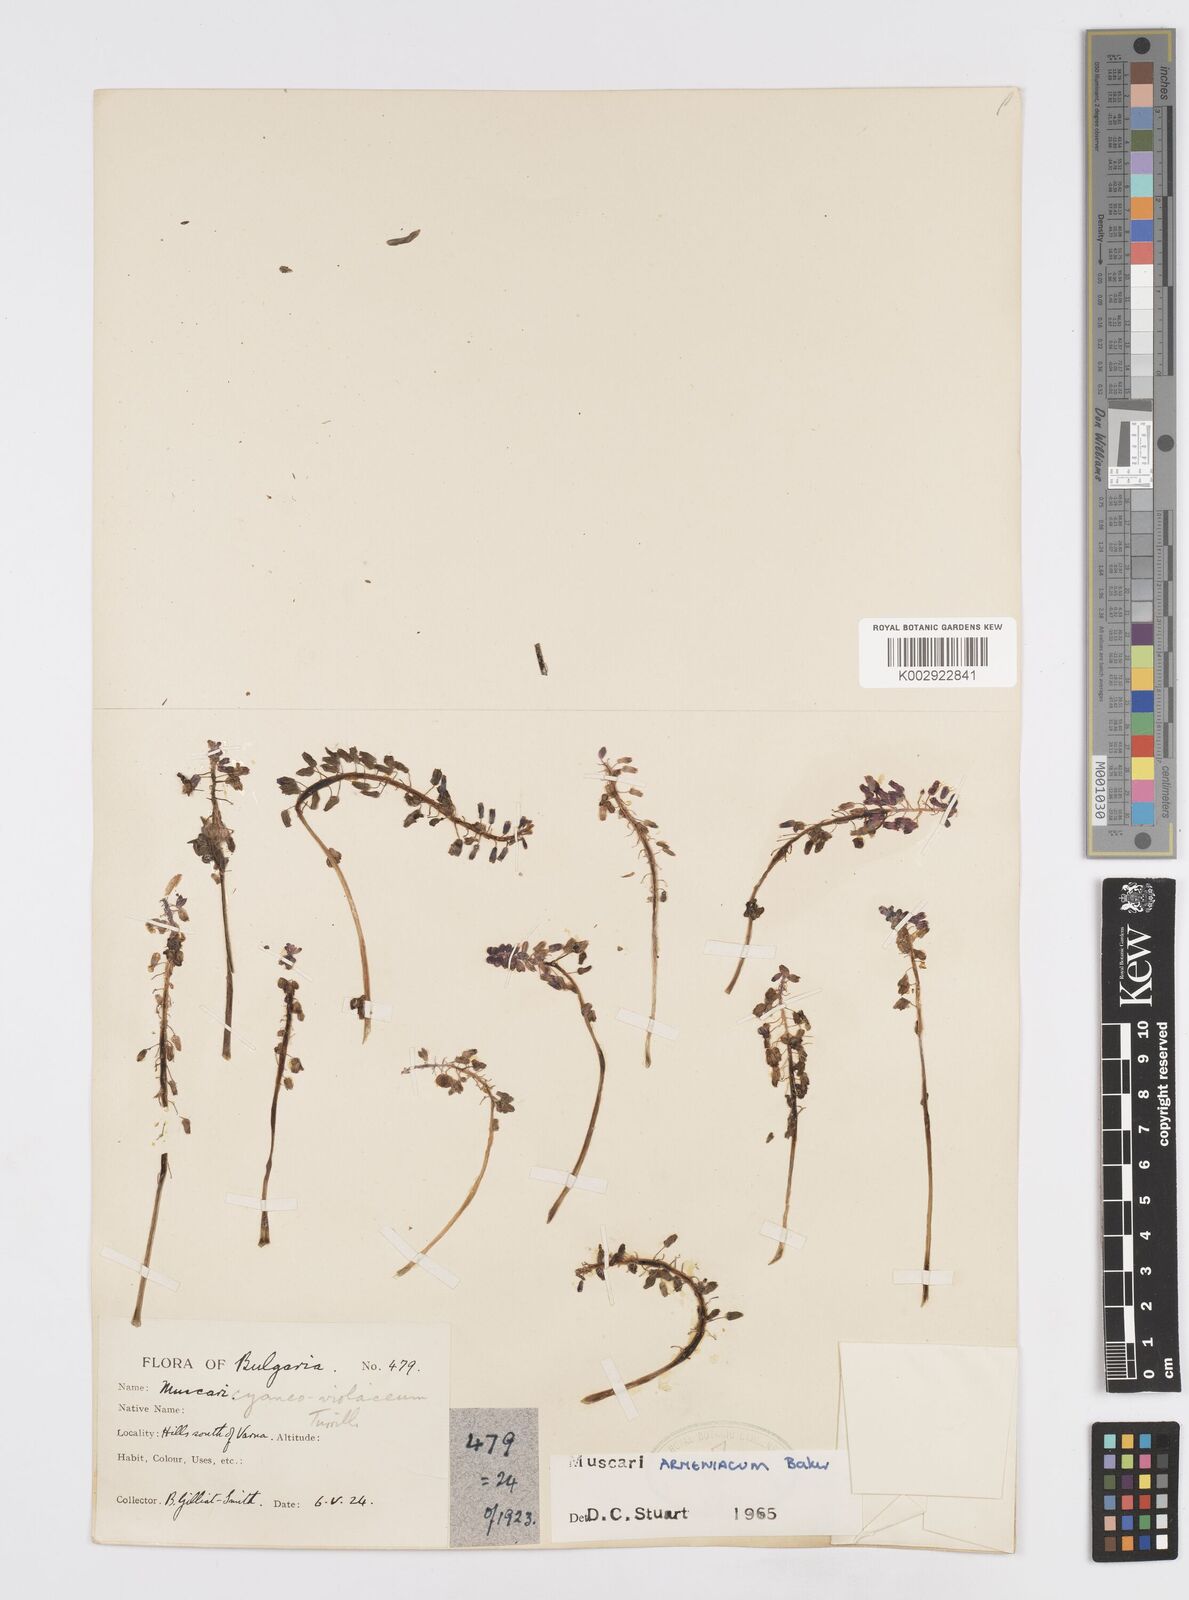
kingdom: Plantae
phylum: Tracheophyta
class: Liliopsida
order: Asparagales
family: Asparagaceae
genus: Muscari
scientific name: Muscari
